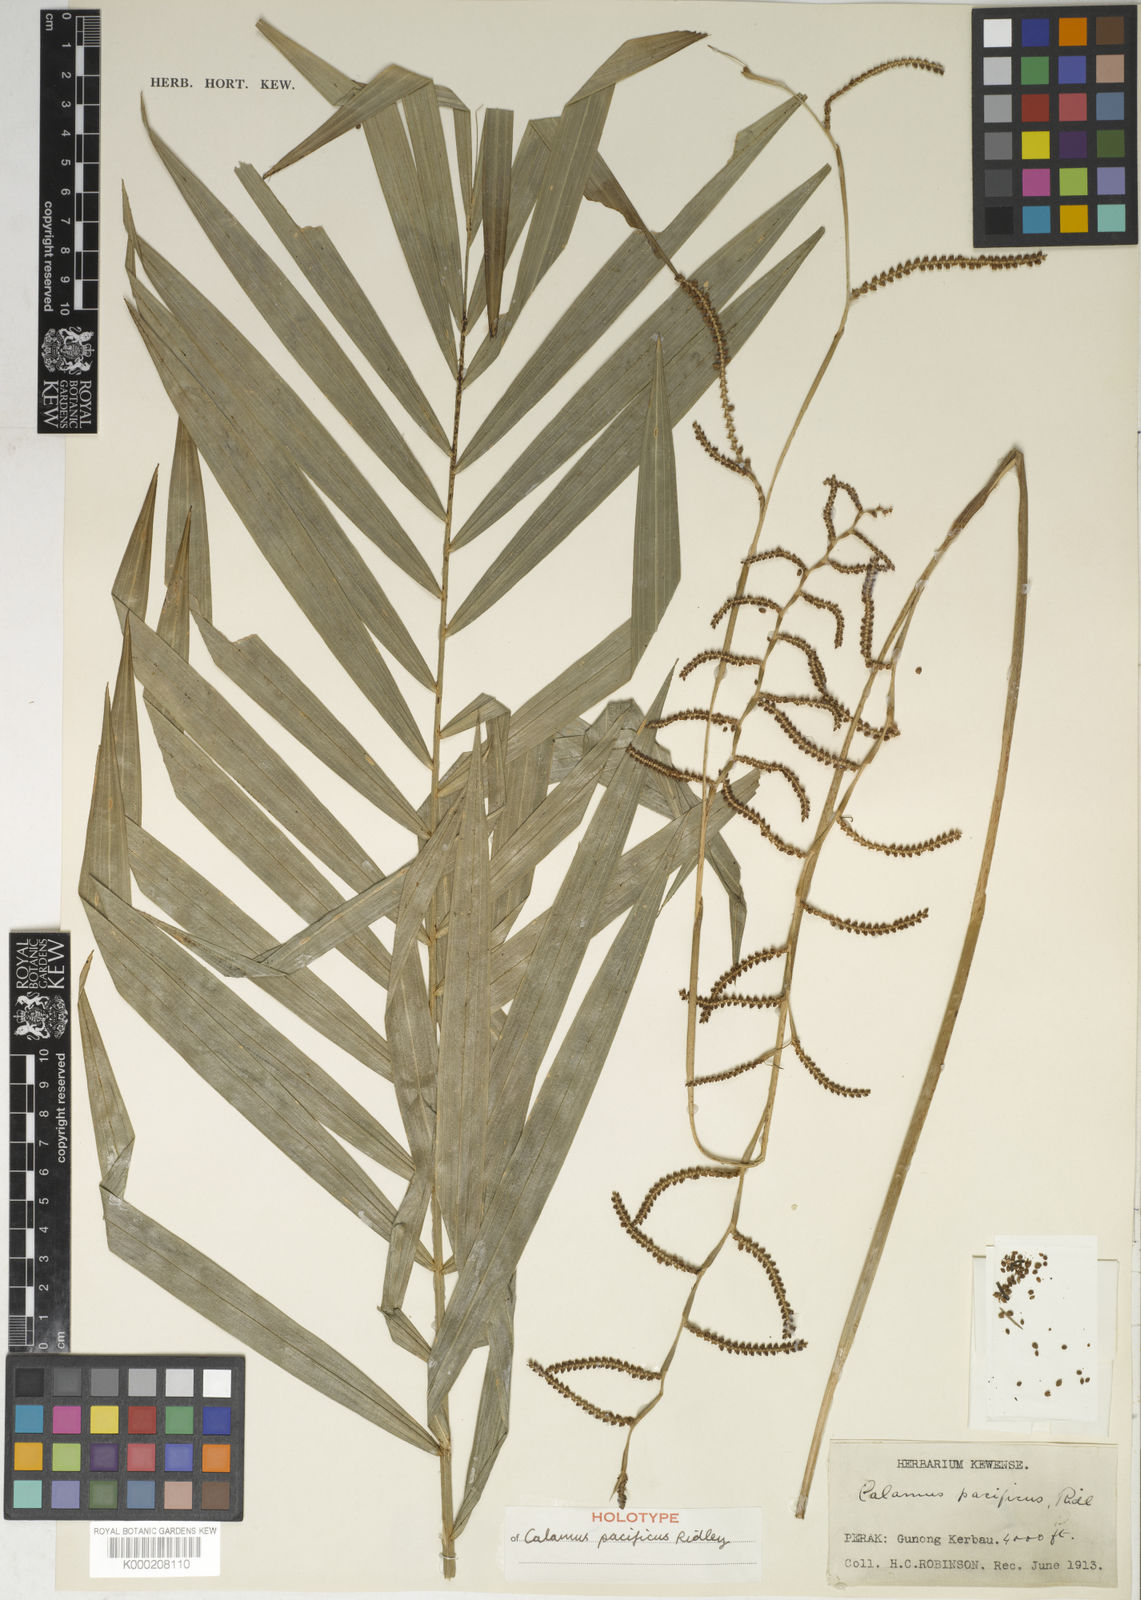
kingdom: Plantae
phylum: Tracheophyta
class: Liliopsida
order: Arecales
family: Arecaceae
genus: Calamus
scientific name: Calamus diepenhorstii
